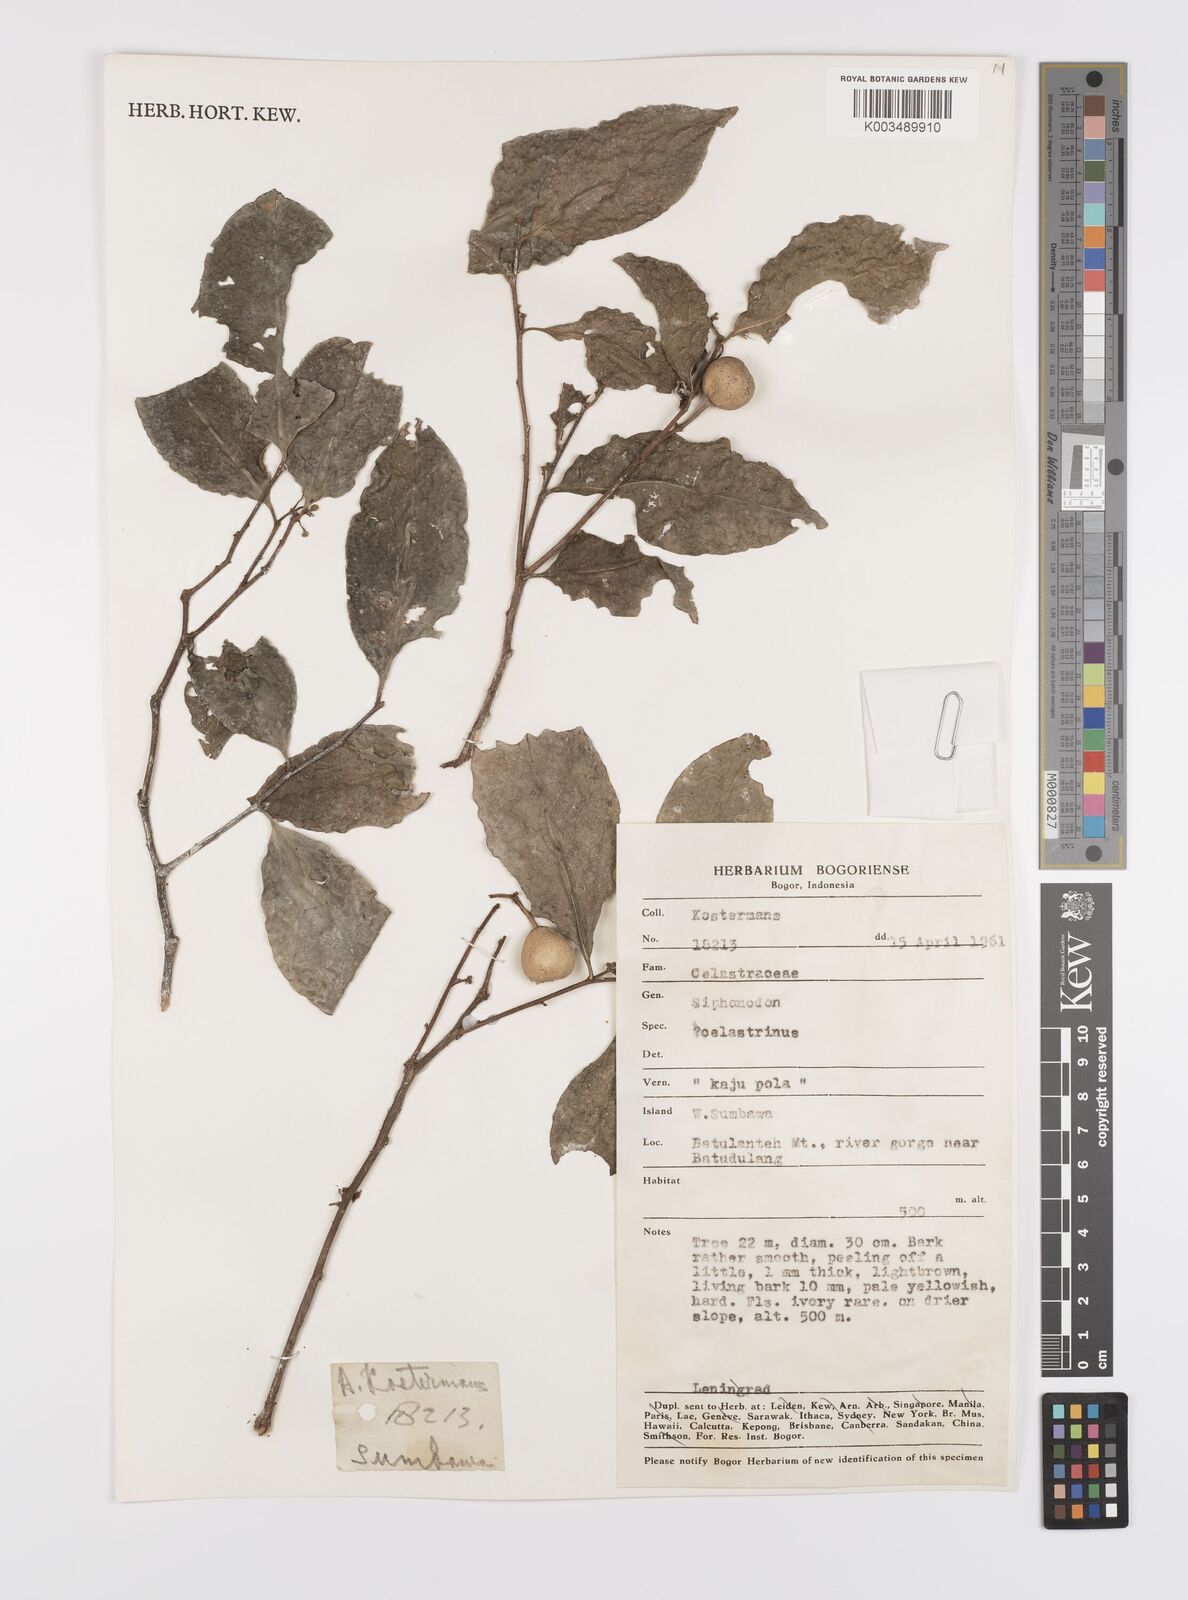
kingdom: Plantae
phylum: Tracheophyta
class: Magnoliopsida
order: Celastrales
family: Celastraceae
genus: Siphonodon
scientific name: Siphonodon celastrineus
